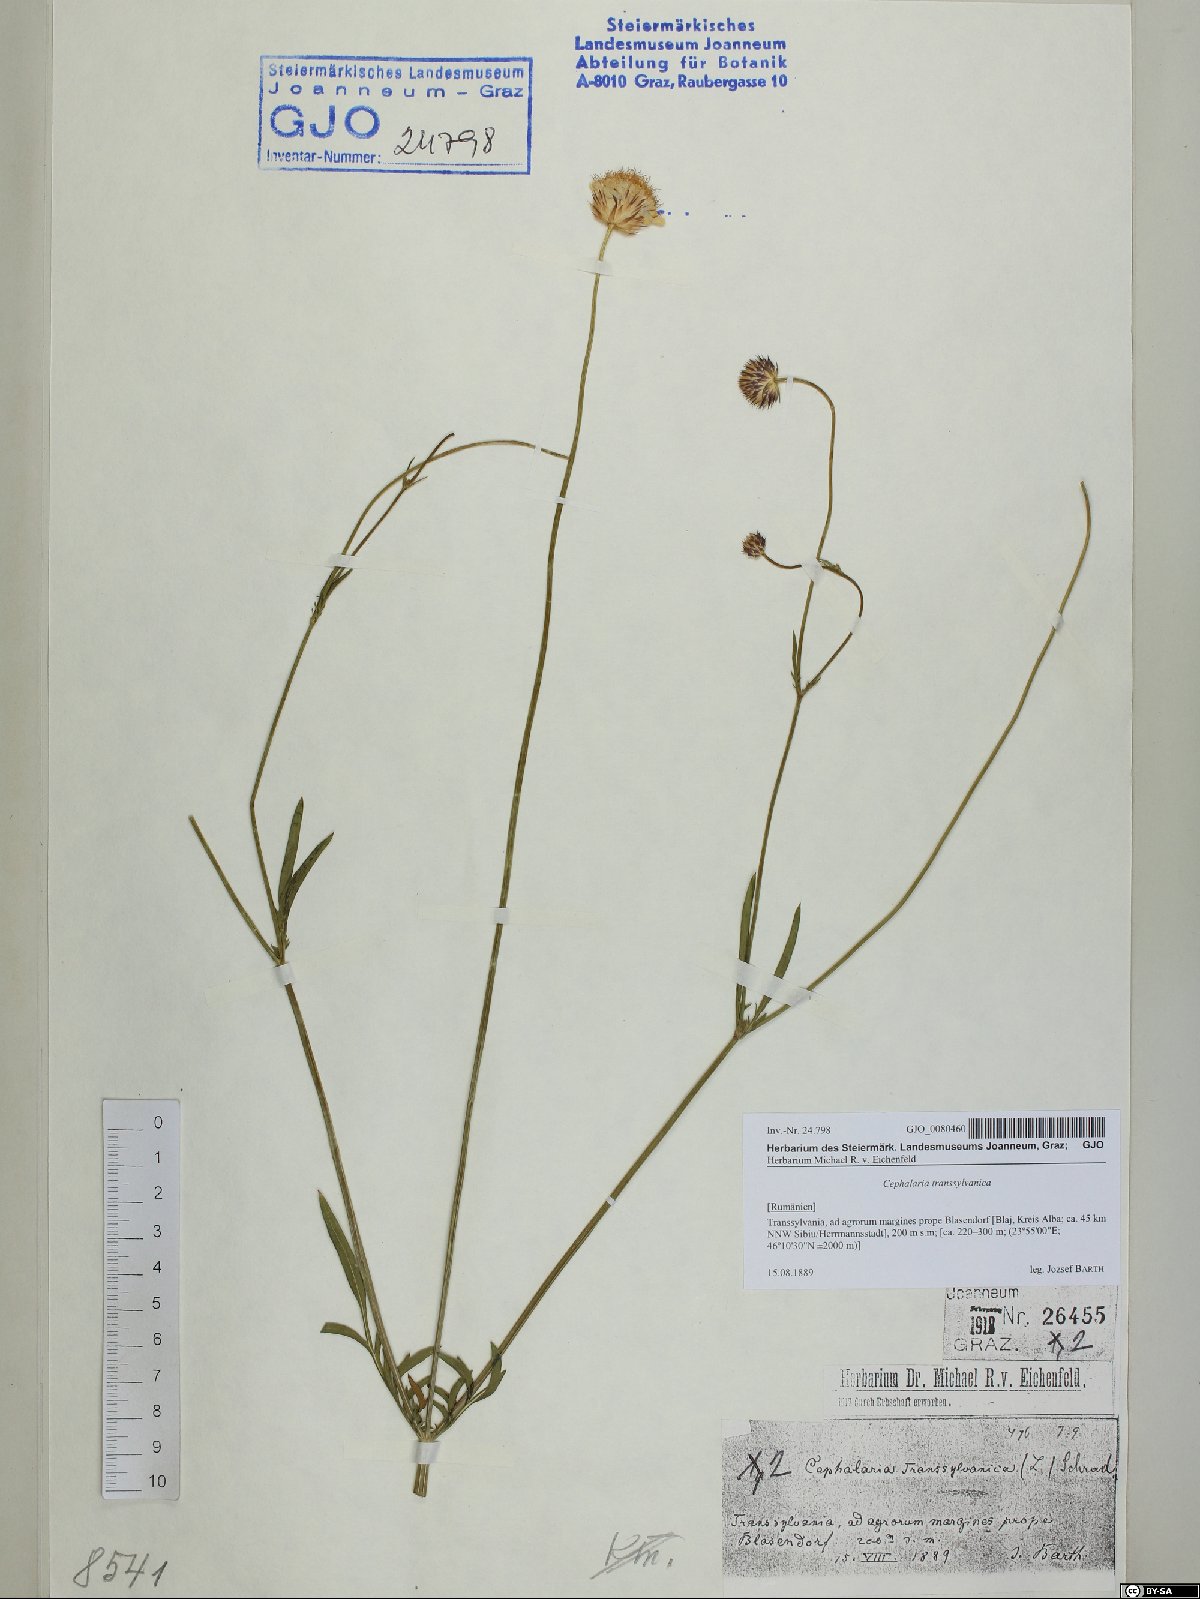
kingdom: Plantae
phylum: Tracheophyta
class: Magnoliopsida
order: Dipsacales
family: Caprifoliaceae
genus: Cephalaria
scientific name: Cephalaria transsylvanica
